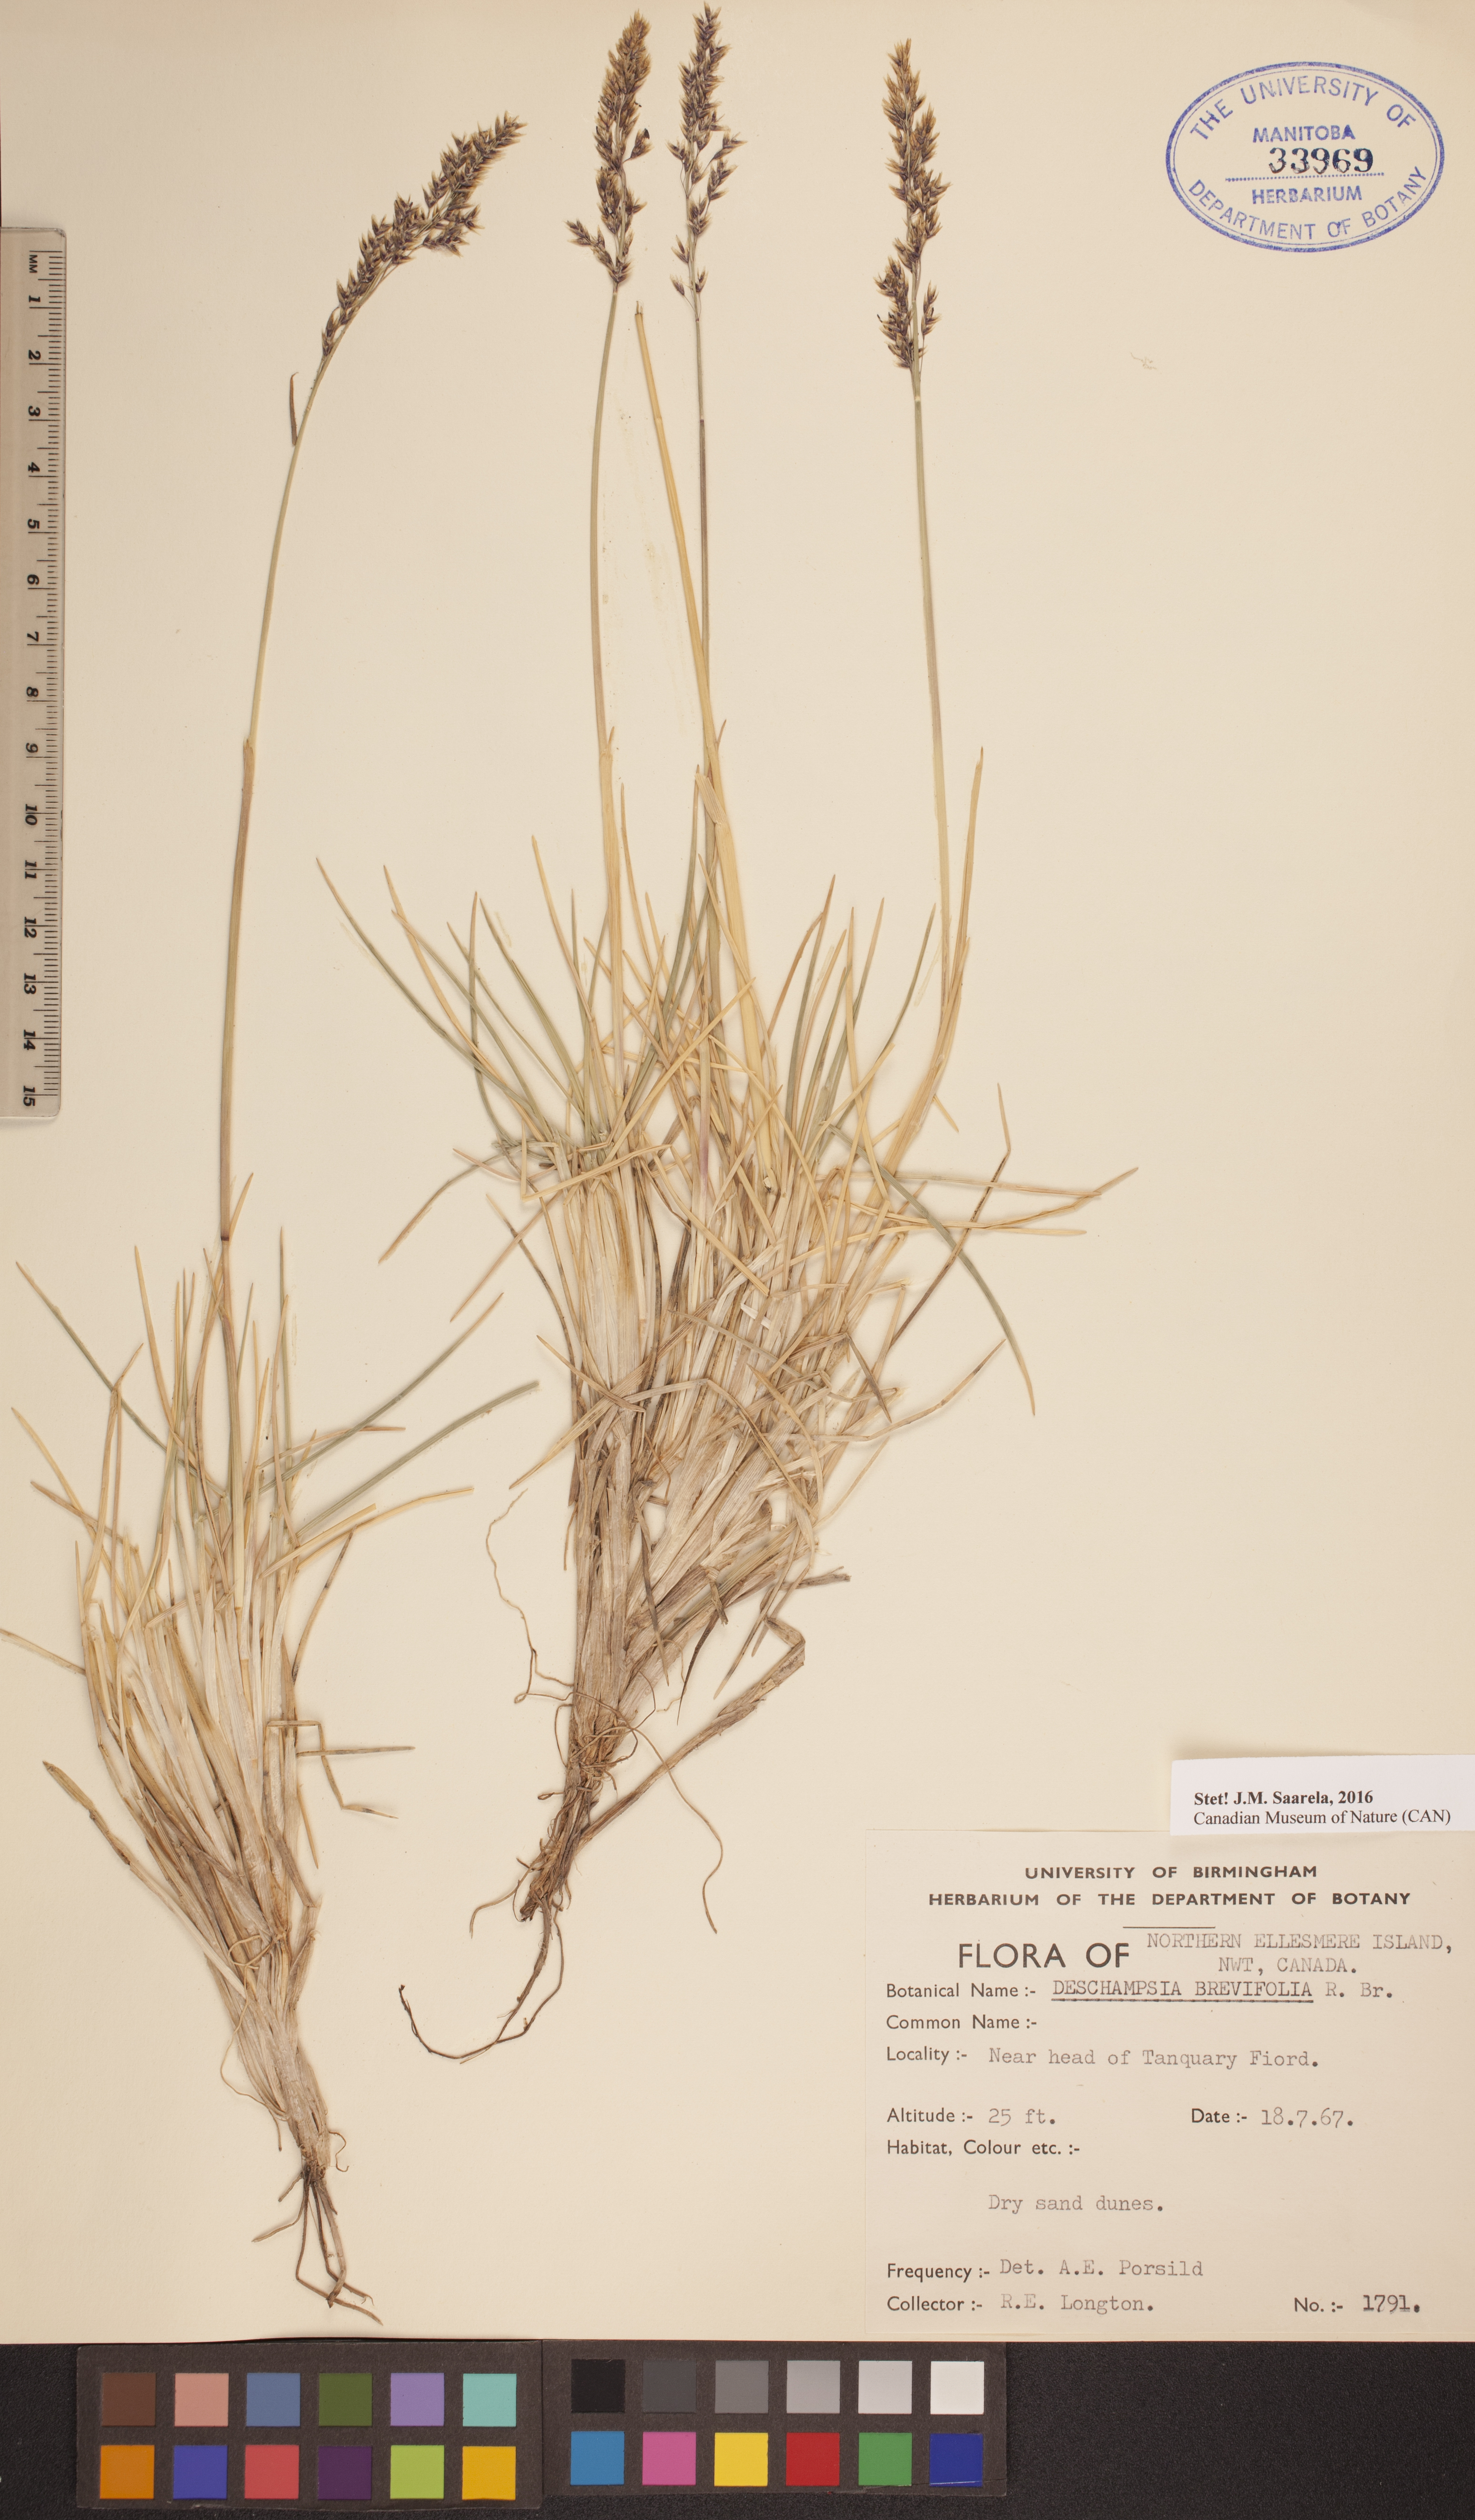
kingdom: Plantae
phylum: Tracheophyta
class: Liliopsida
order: Poales
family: Poaceae
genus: Deschampsia
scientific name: Deschampsia cespitosa
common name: Tufted hair-grass
